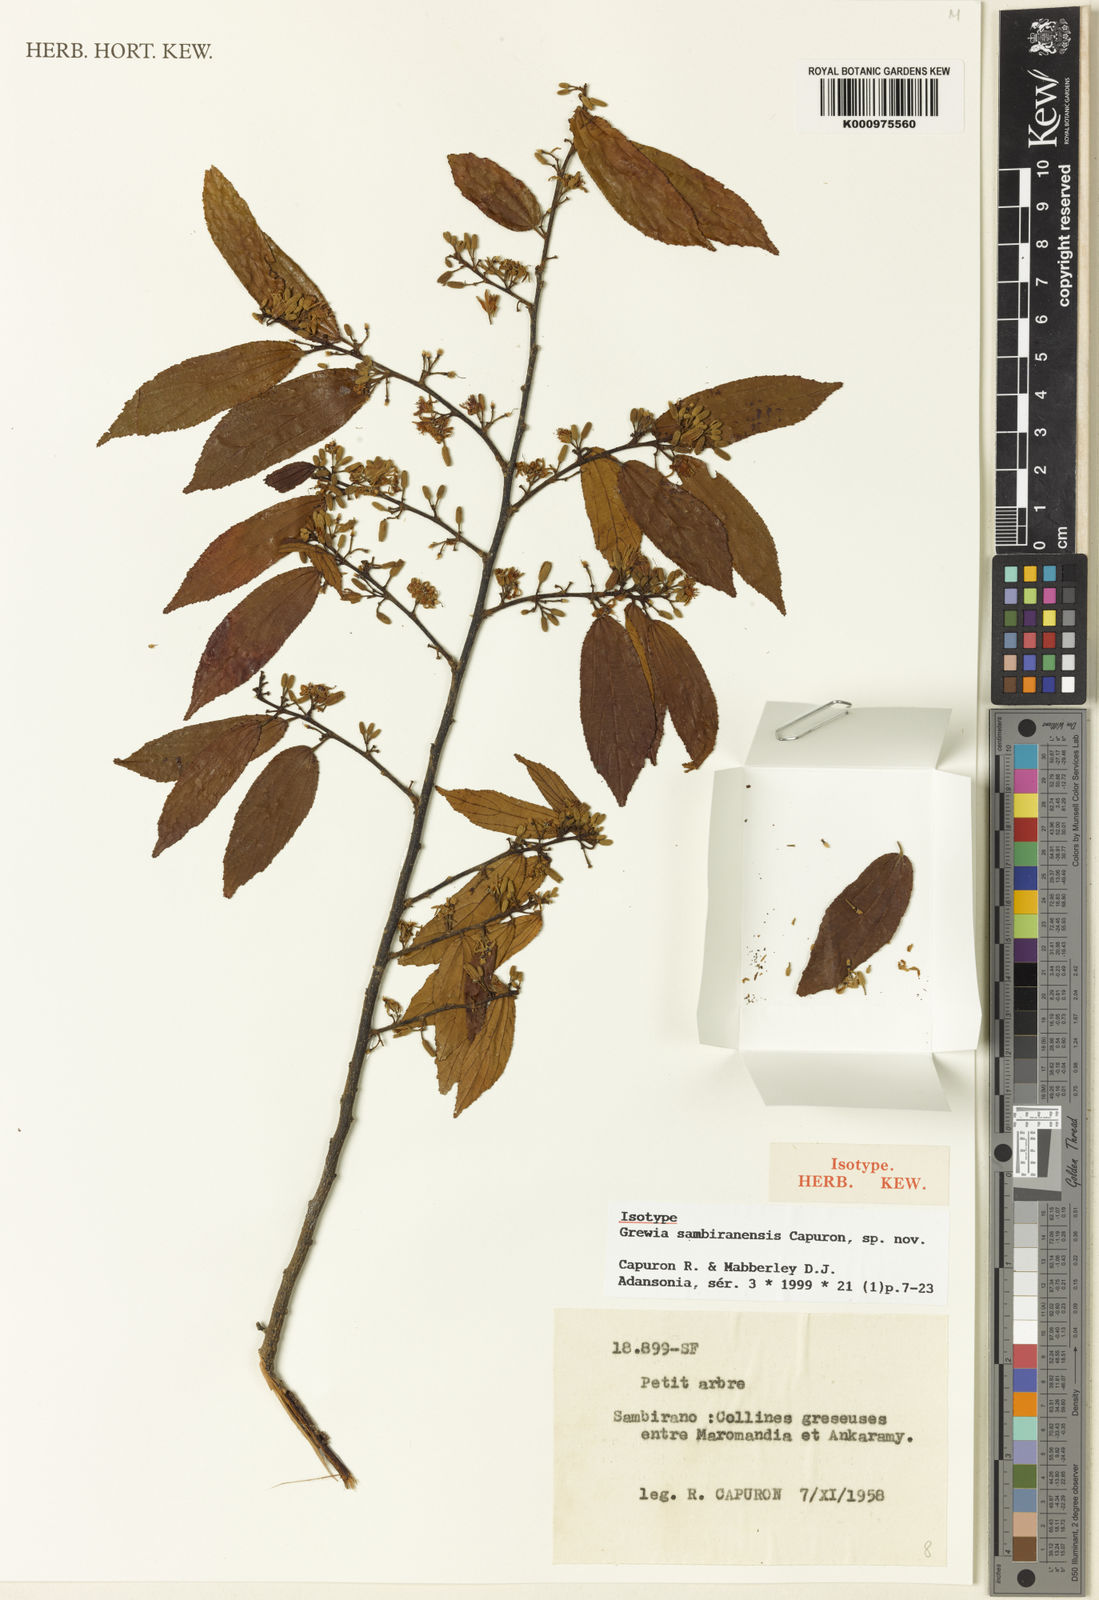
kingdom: Plantae
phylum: Tracheophyta
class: Magnoliopsida
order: Malvales
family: Malvaceae
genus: Grewia
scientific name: Grewia sambiranensis
